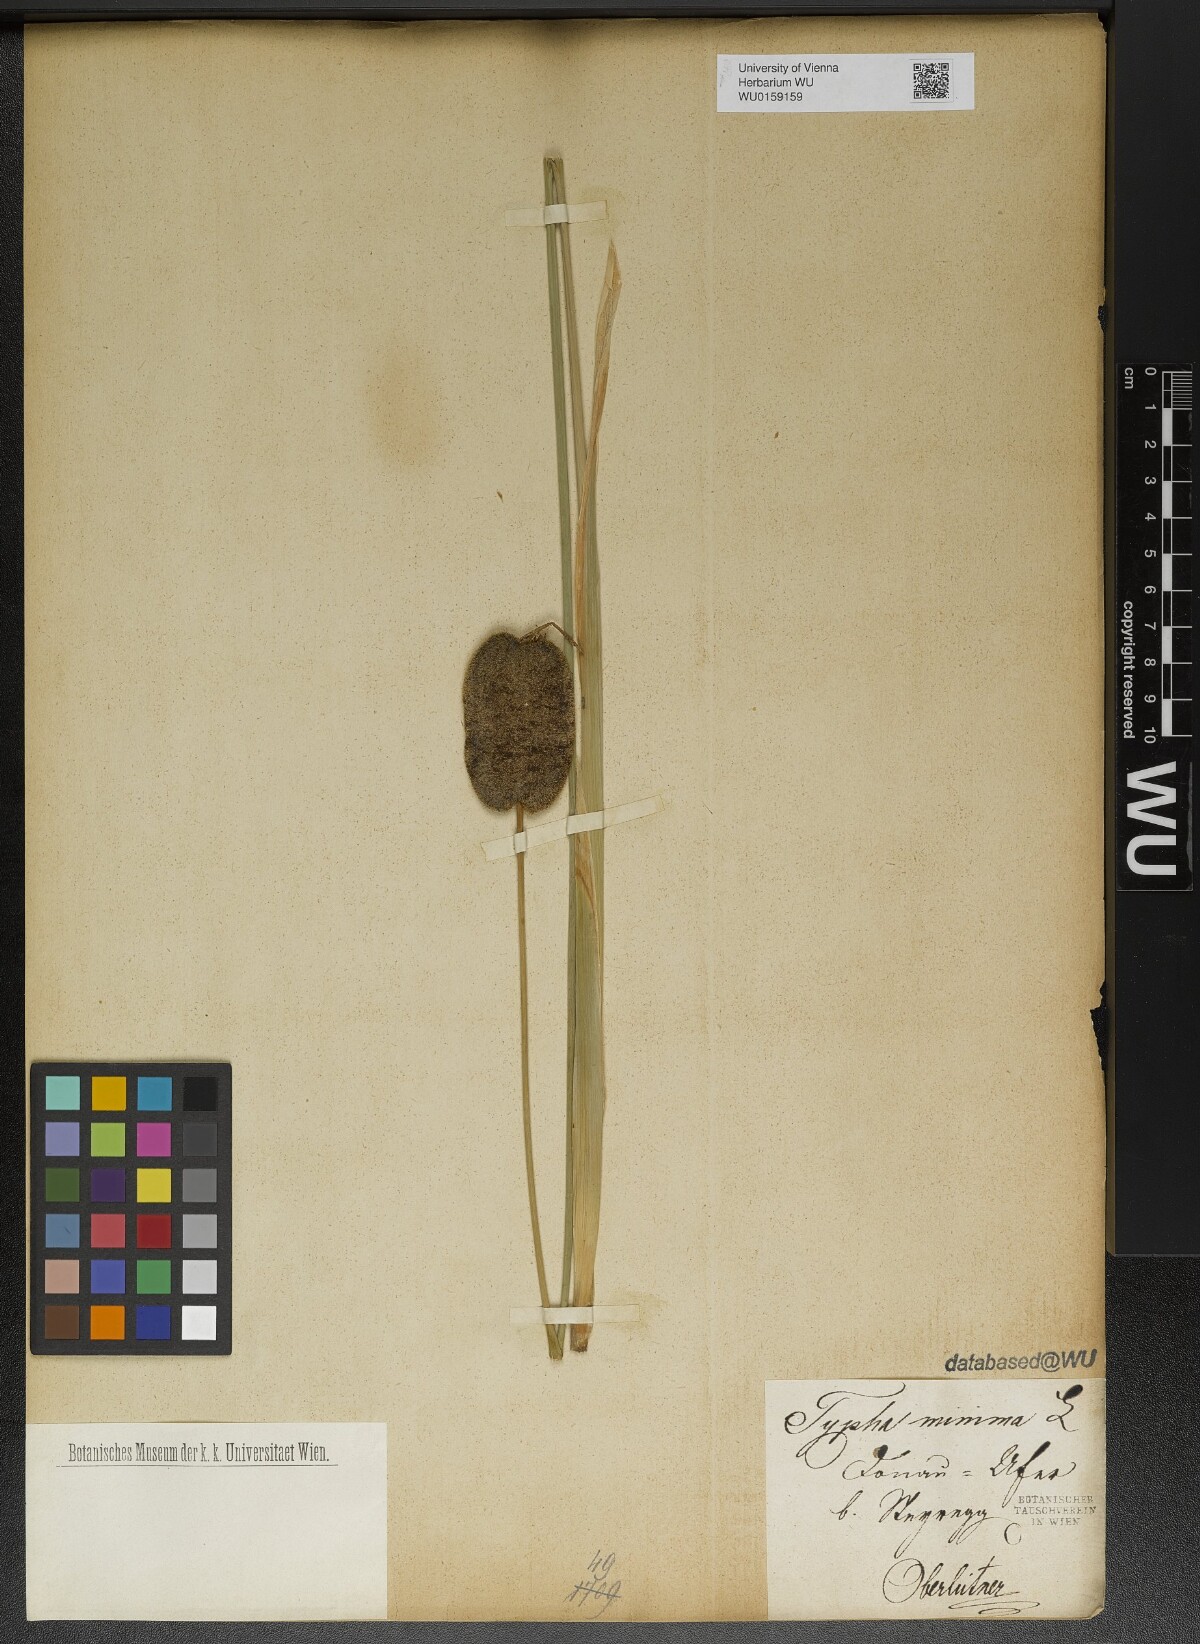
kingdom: Plantae
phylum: Tracheophyta
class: Liliopsida
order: Poales
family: Typhaceae
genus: Typha
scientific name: Typha minima
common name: Dwarf bulrush
